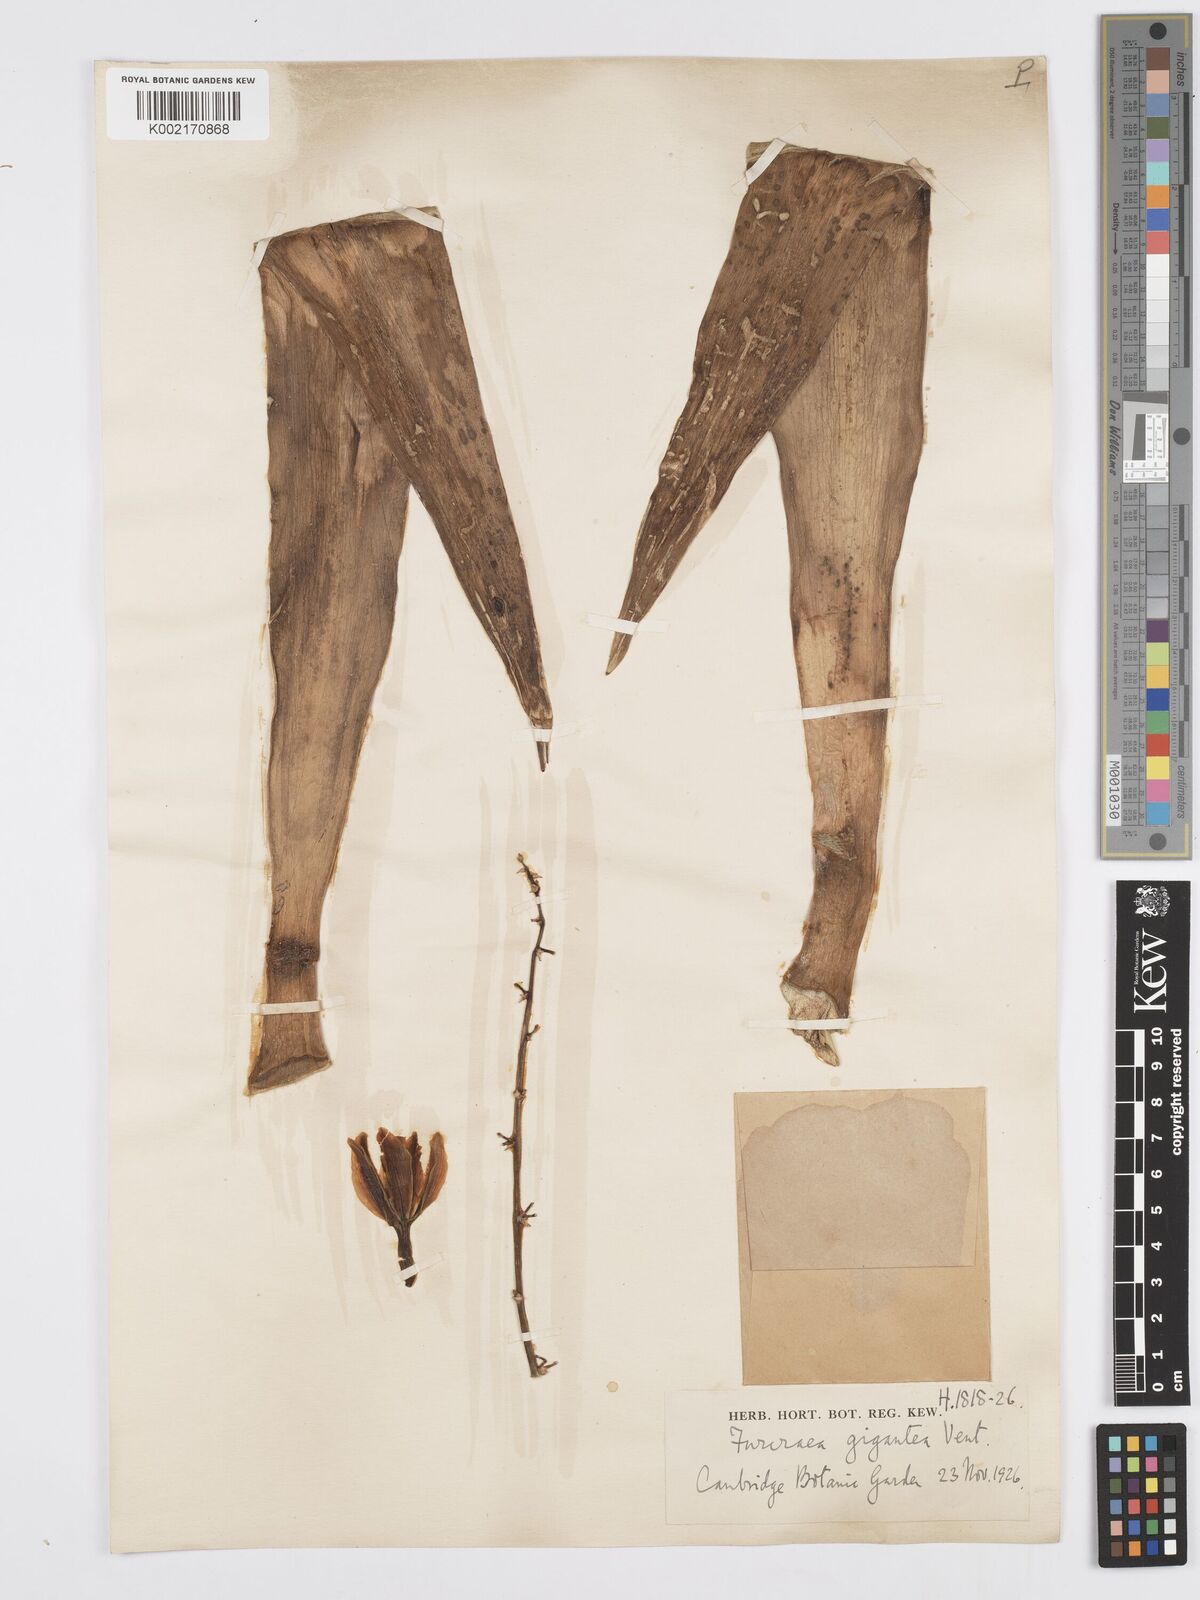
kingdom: Plantae
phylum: Tracheophyta
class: Liliopsida
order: Asparagales
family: Asparagaceae
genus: Furcraea
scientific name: Furcraea foetida
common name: Mauritius hemp
